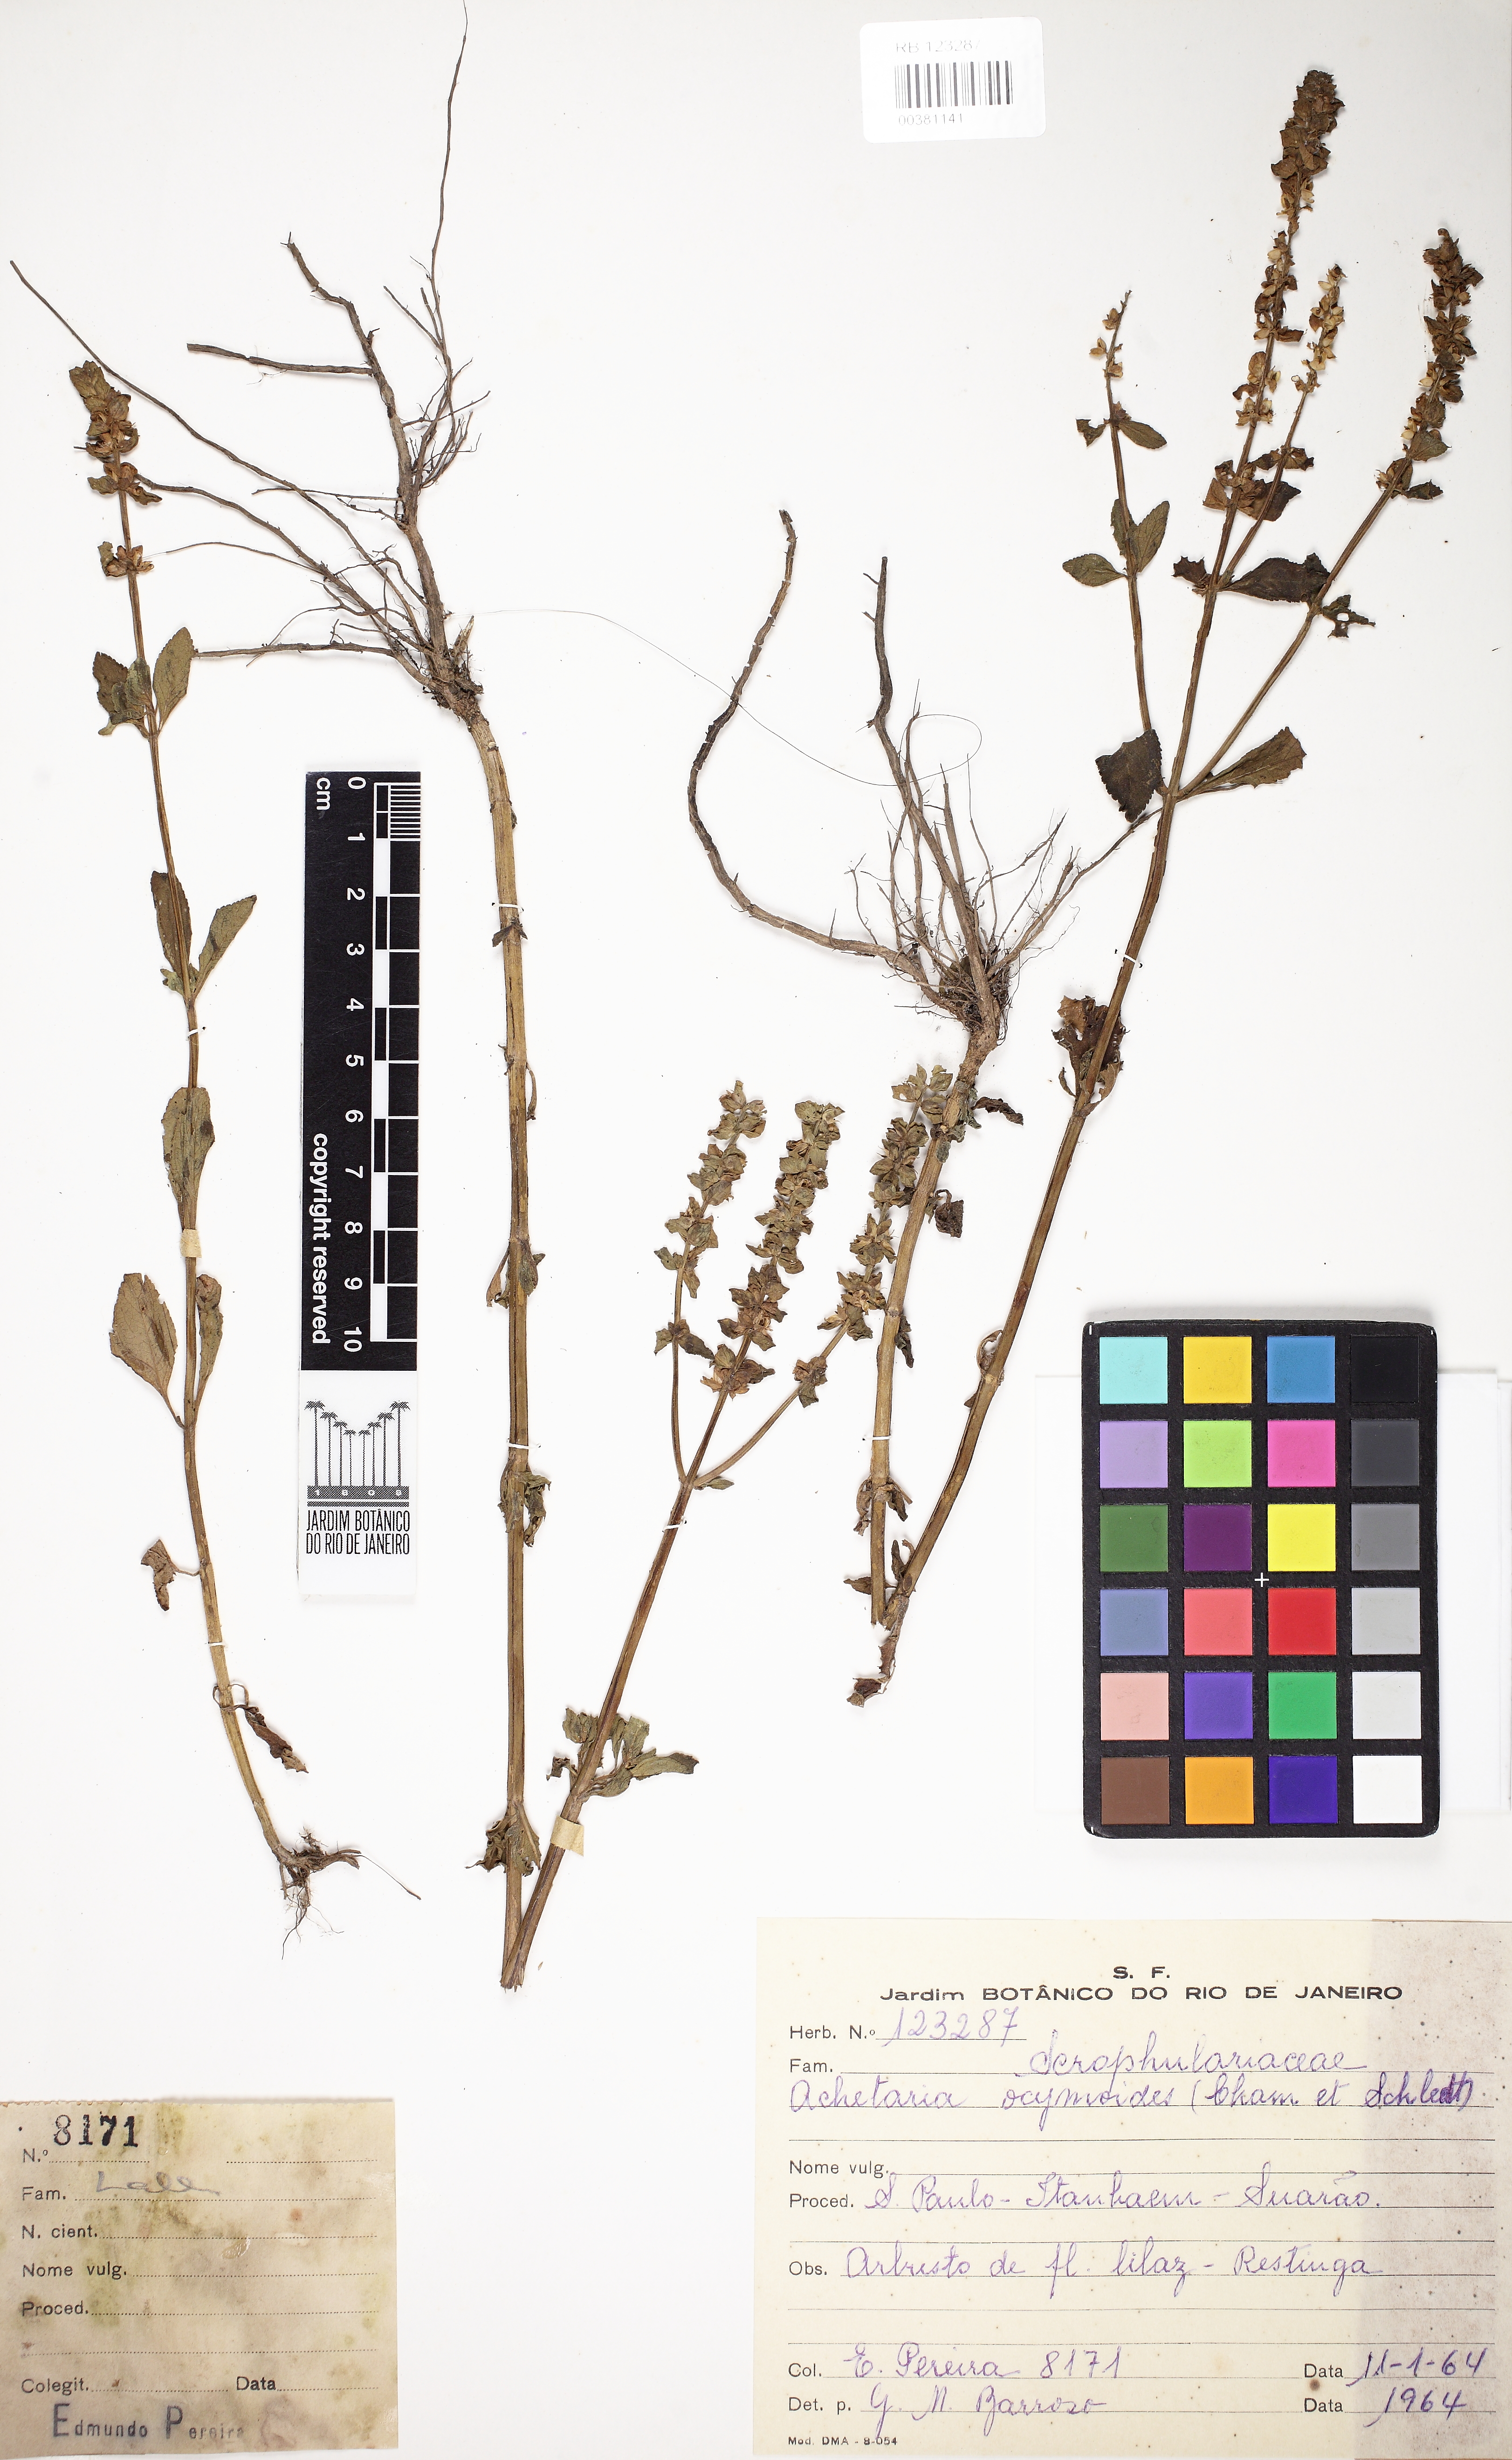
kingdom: Plantae
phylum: Tracheophyta
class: Magnoliopsida
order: Lamiales
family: Plantaginaceae
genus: Matourea
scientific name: Matourea ocymoides
